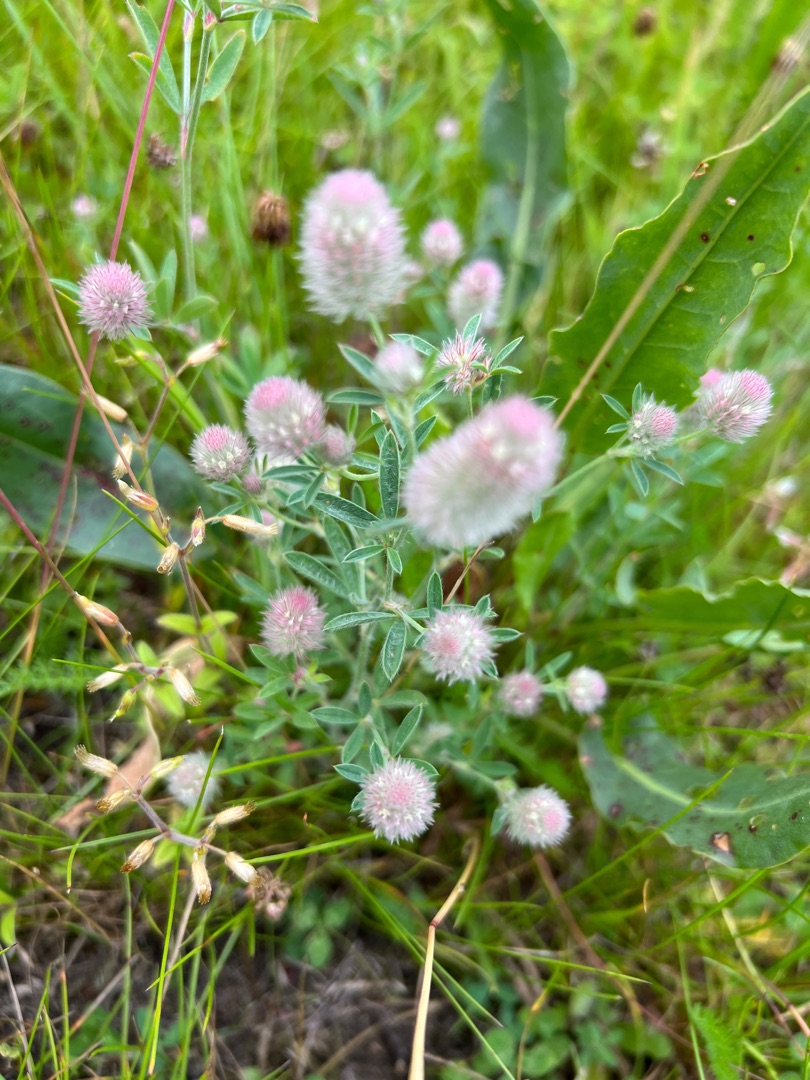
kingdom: Plantae
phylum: Tracheophyta
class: Magnoliopsida
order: Fabales
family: Fabaceae
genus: Trifolium
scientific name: Trifolium arvense
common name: Hare-kløver
